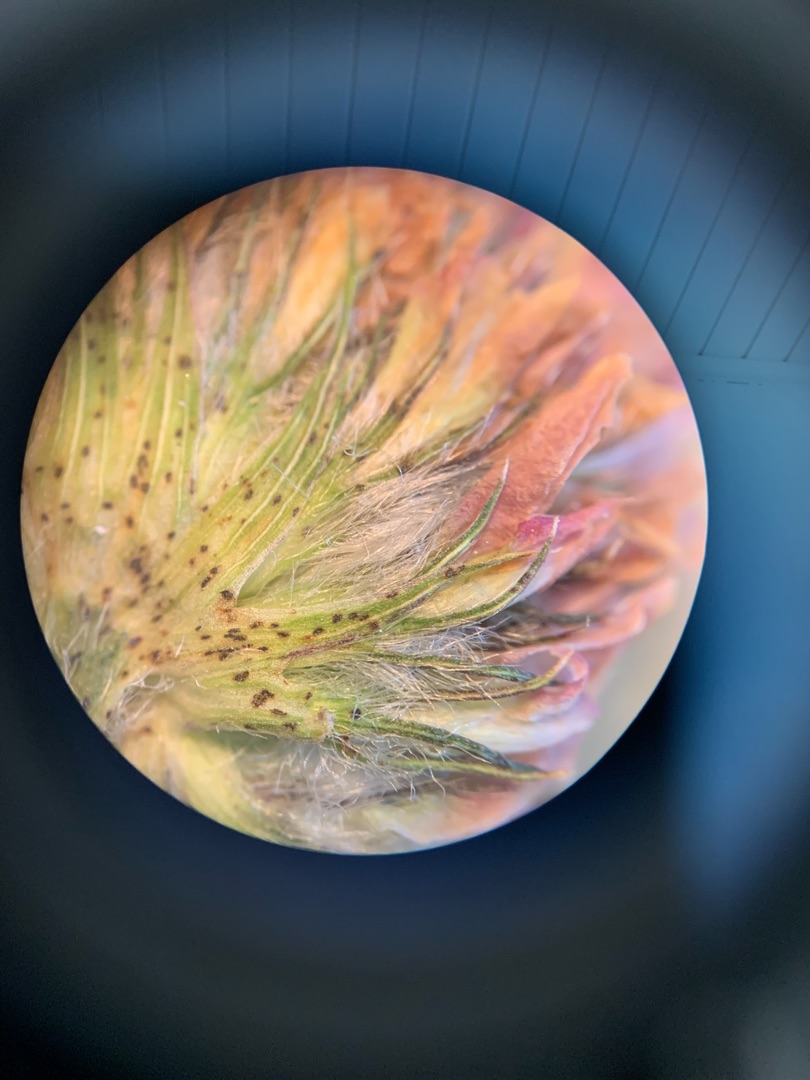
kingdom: Plantae
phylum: Tracheophyta
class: Magnoliopsida
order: Fabales
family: Fabaceae
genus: Trifolium
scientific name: Trifolium fragiferum
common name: Jordbær-kløver
